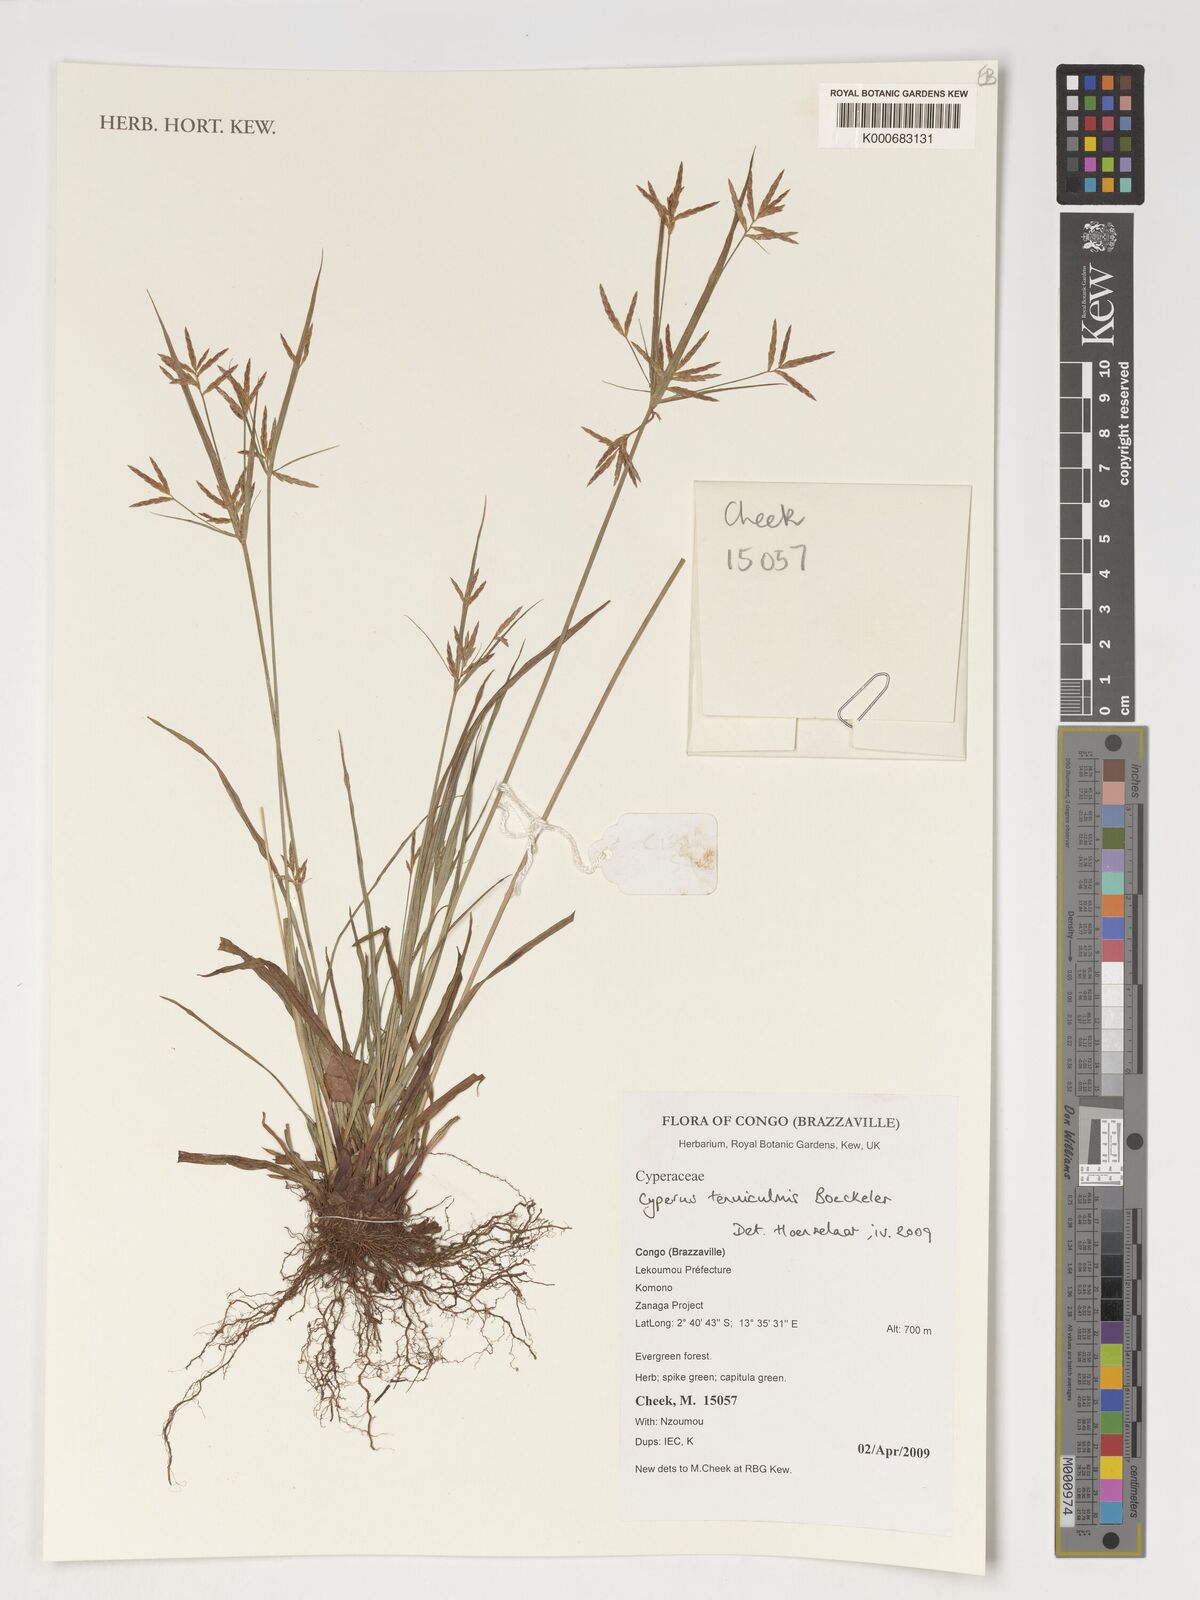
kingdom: Plantae
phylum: Tracheophyta
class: Liliopsida
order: Poales
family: Cyperaceae
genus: Cyperus
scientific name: Cyperus tenuiculmis
